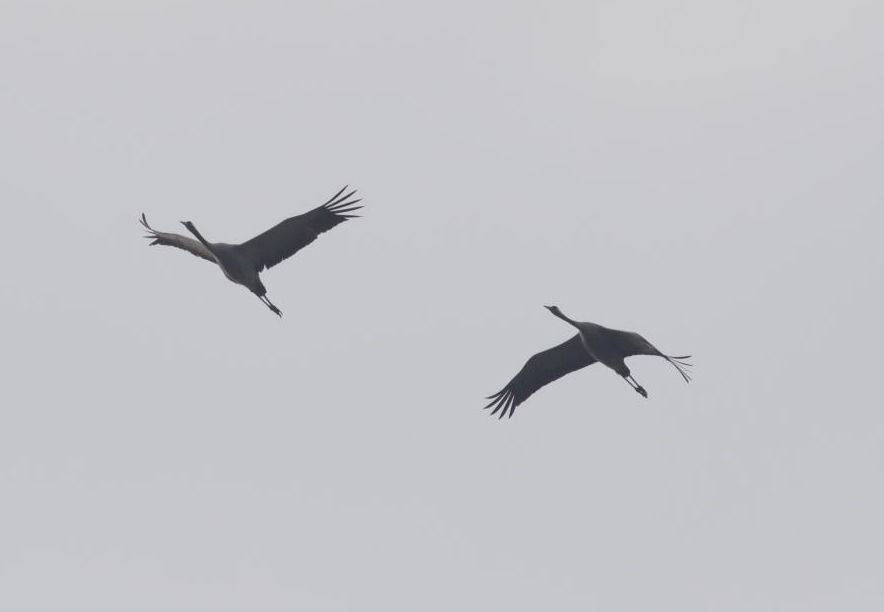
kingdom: Animalia
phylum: Chordata
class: Aves
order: Gruiformes
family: Gruidae
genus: Grus
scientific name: Grus grus
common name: Common crane
